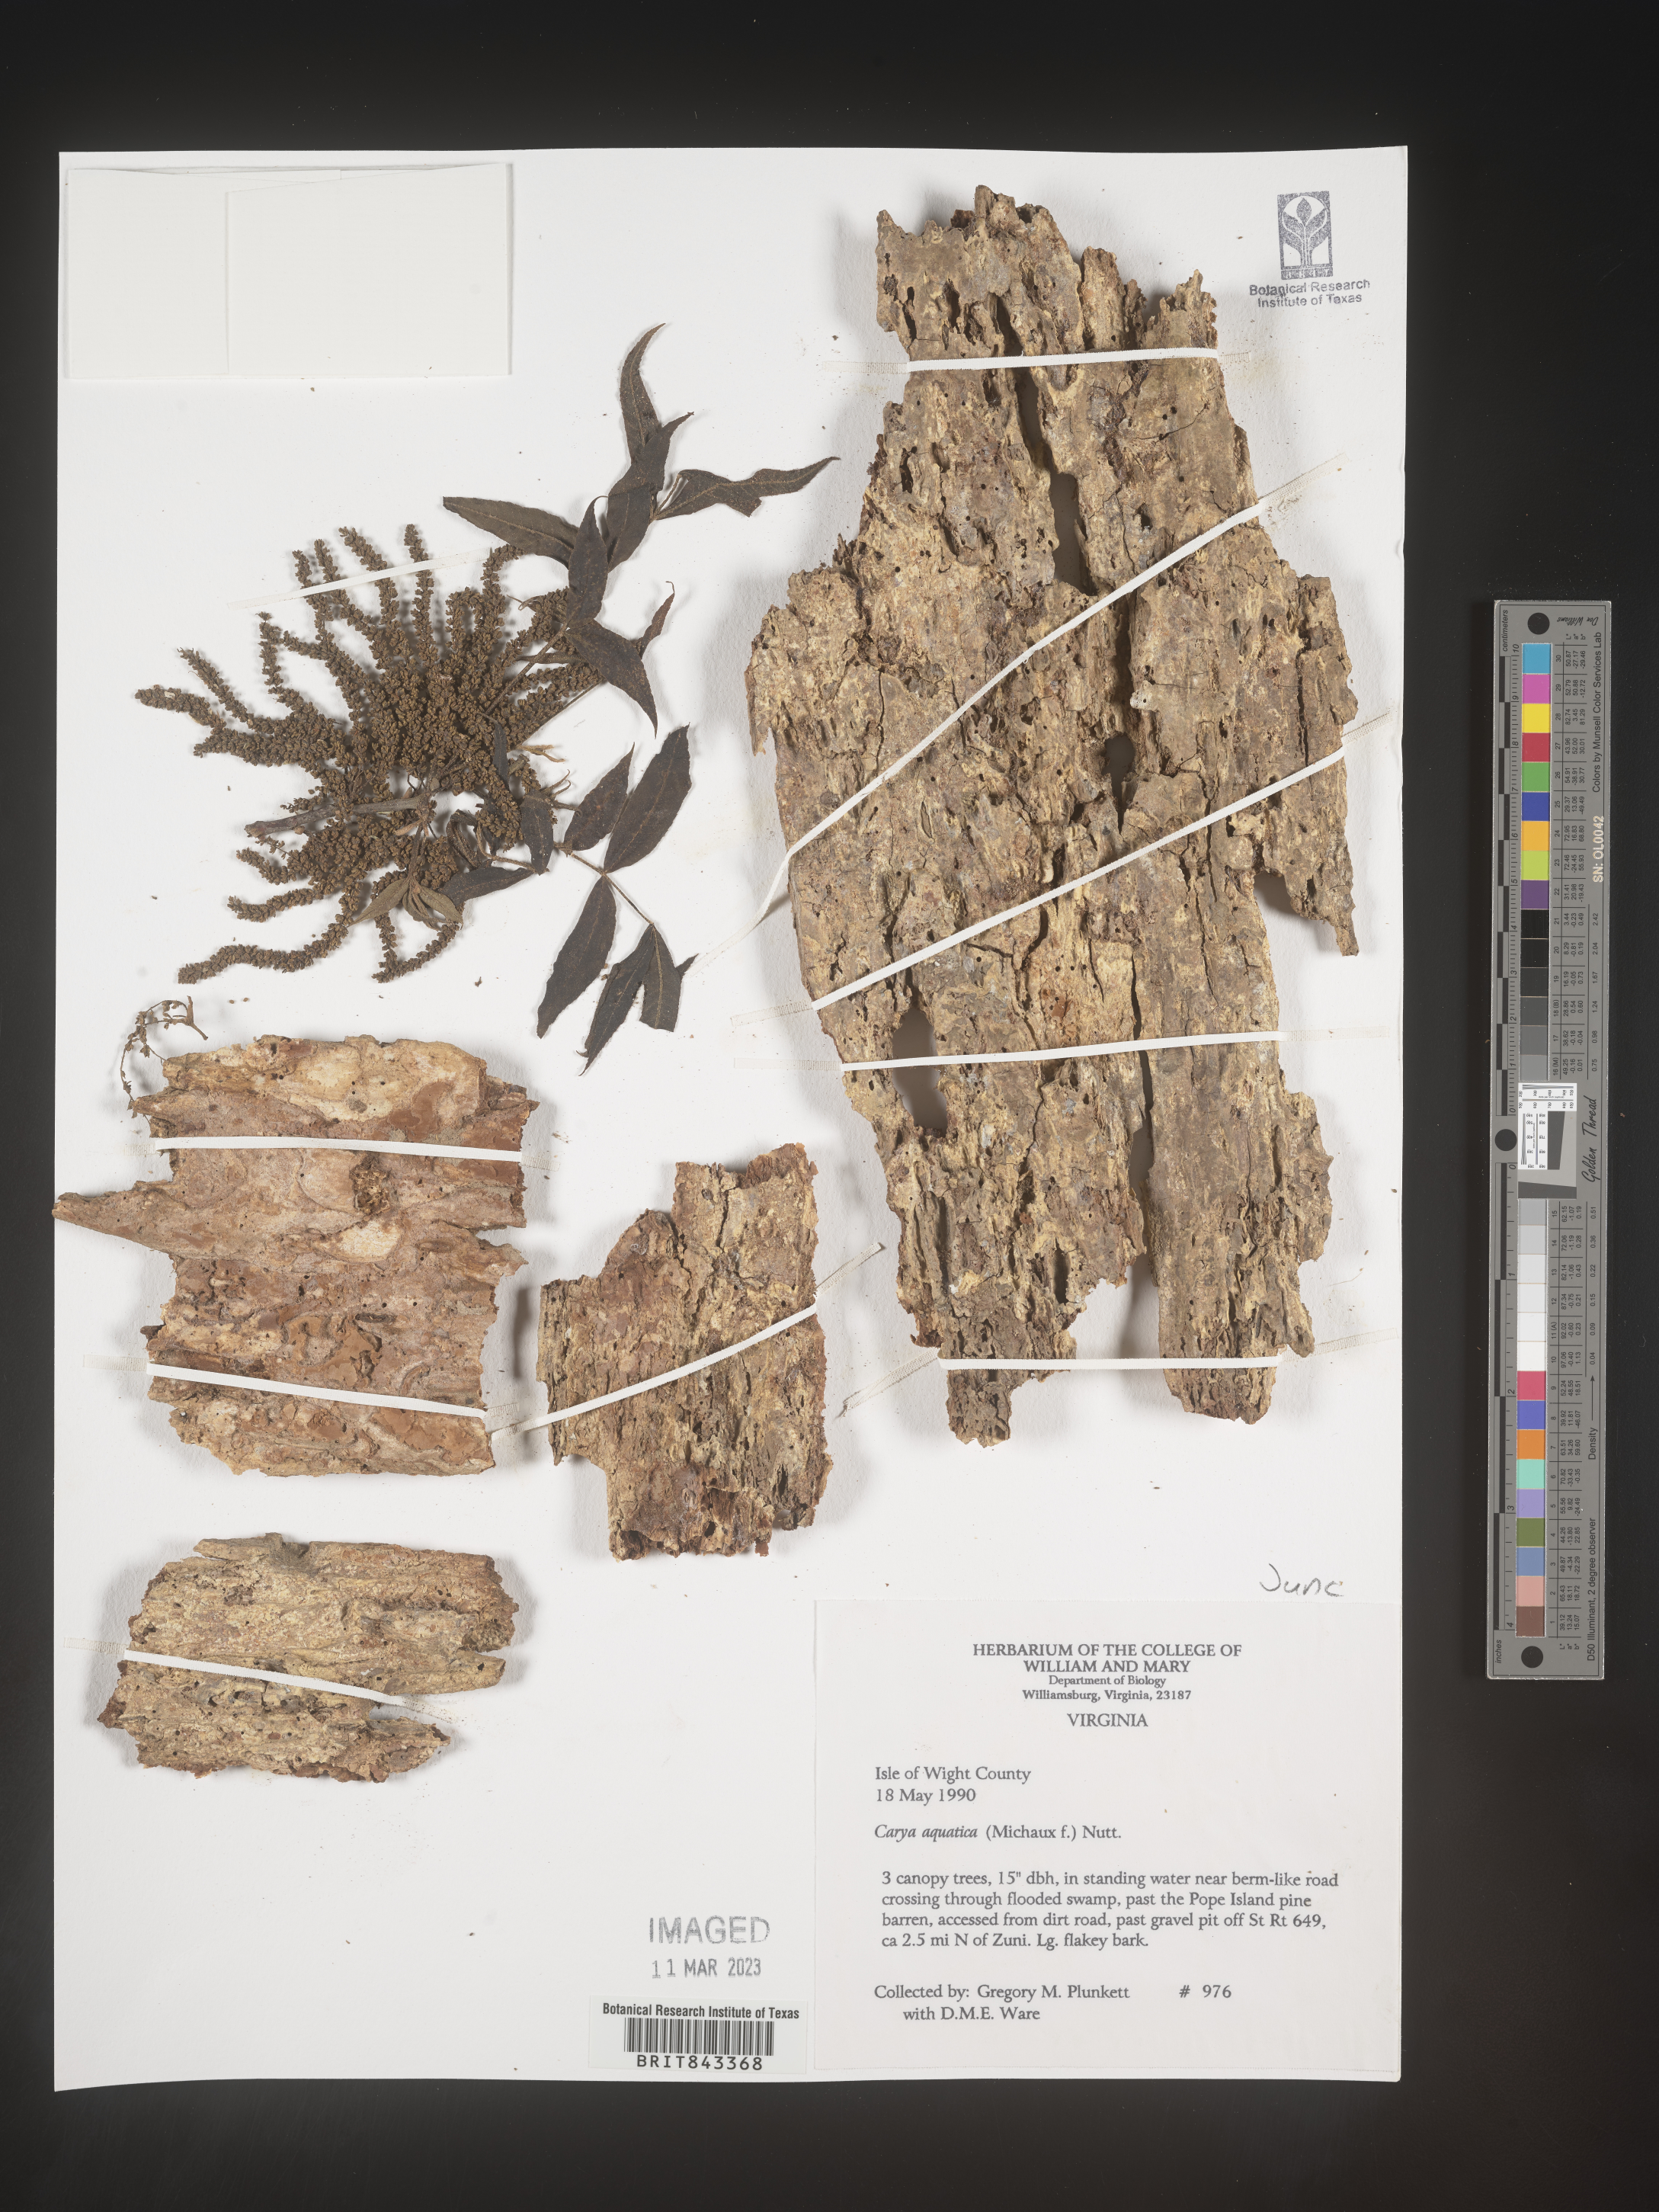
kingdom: Plantae
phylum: Tracheophyta
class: Magnoliopsida
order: Fagales
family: Juglandaceae
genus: Carya
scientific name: Carya aquatica
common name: Water hickory
